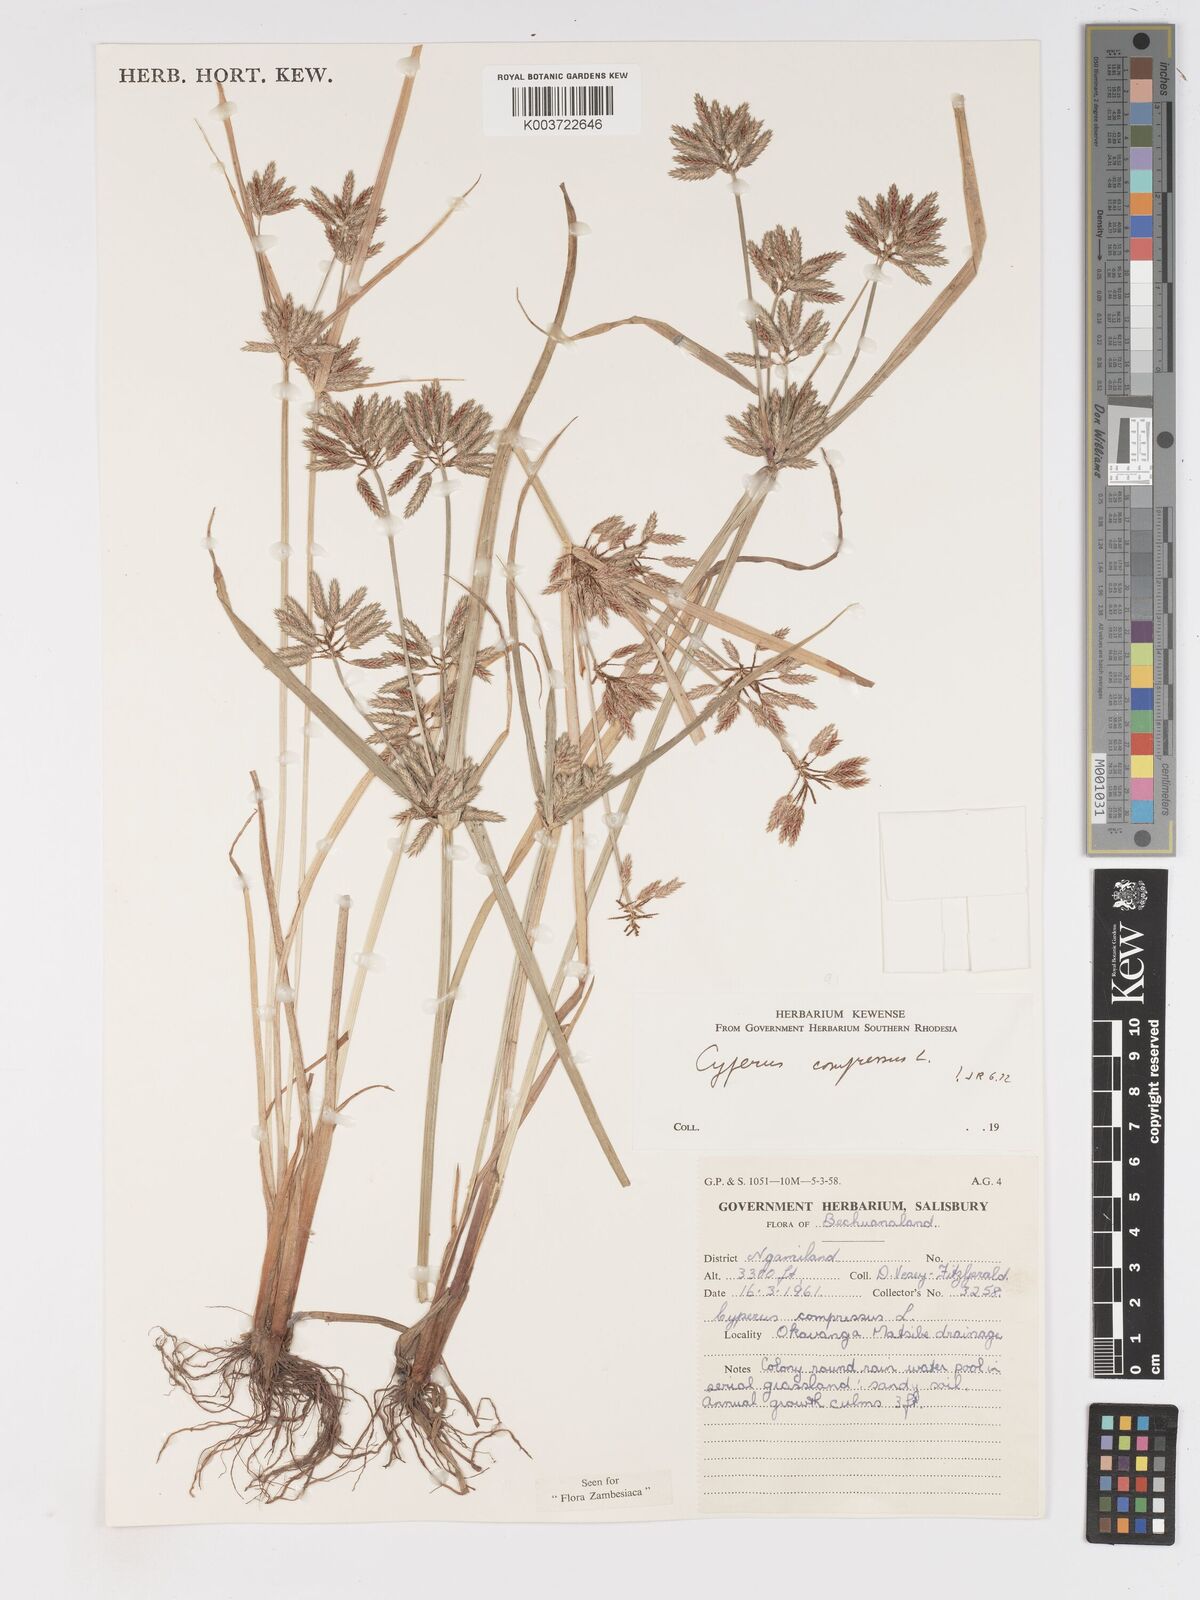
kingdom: Plantae
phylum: Tracheophyta
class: Liliopsida
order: Poales
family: Cyperaceae
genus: Cyperus
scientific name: Cyperus compressus
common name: Poorland flatsedge
